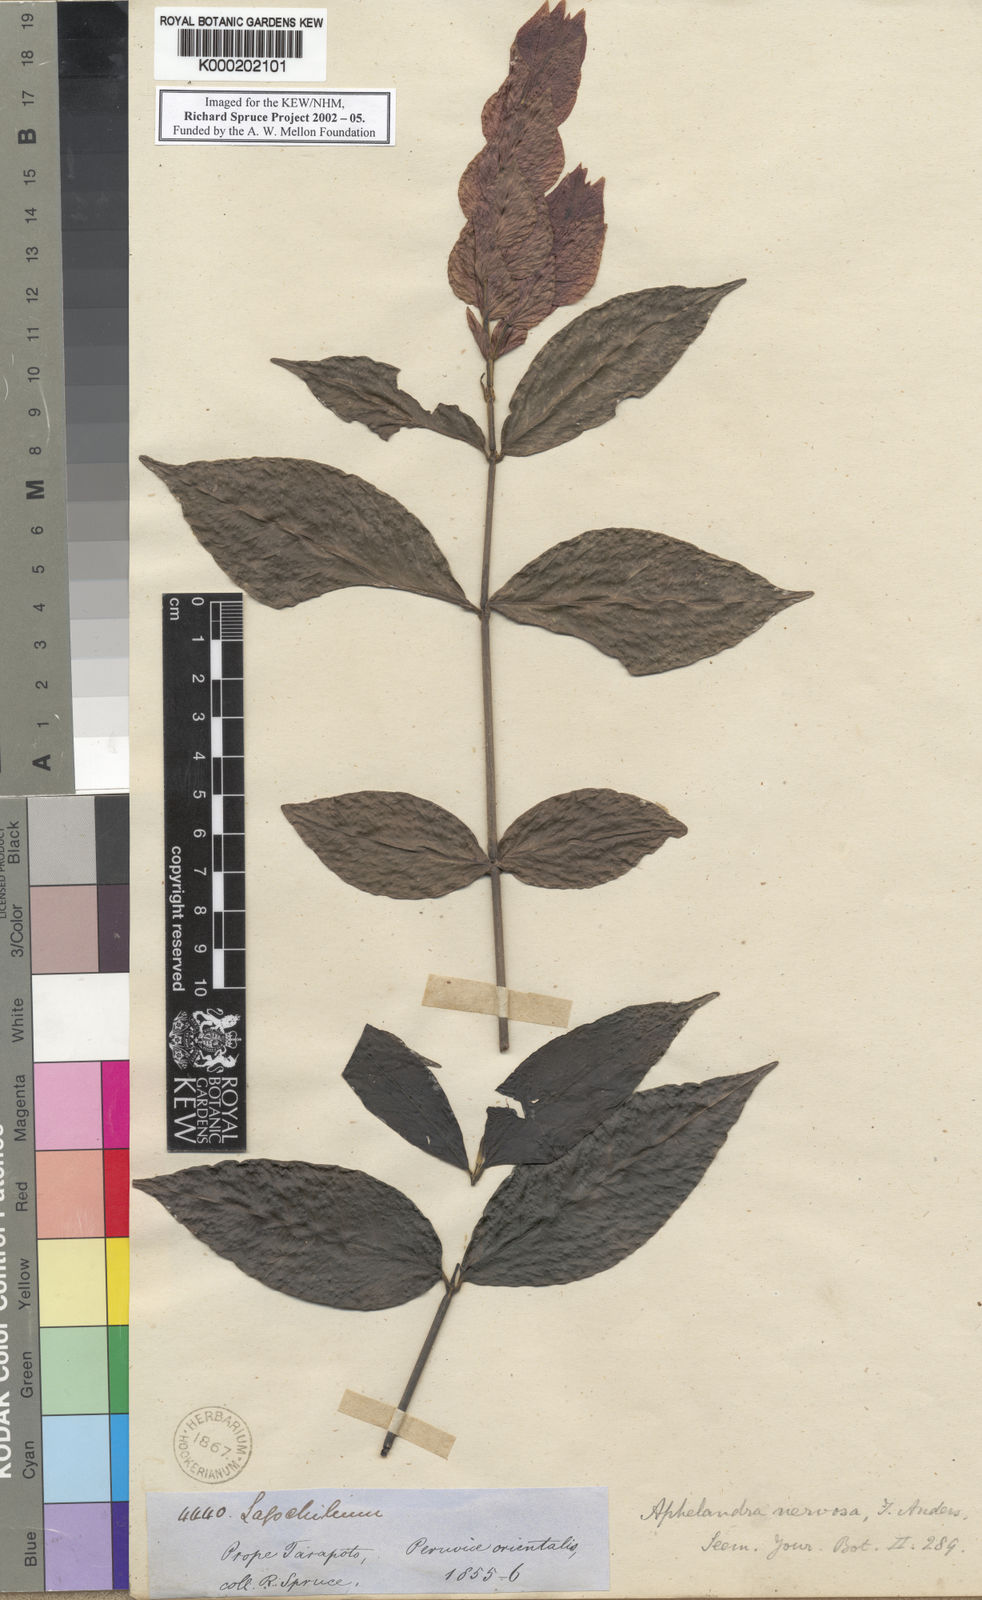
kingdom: Plantae
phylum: Tracheophyta
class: Magnoliopsida
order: Lamiales
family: Acanthaceae
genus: Justicia
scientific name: Justicia scansilis
